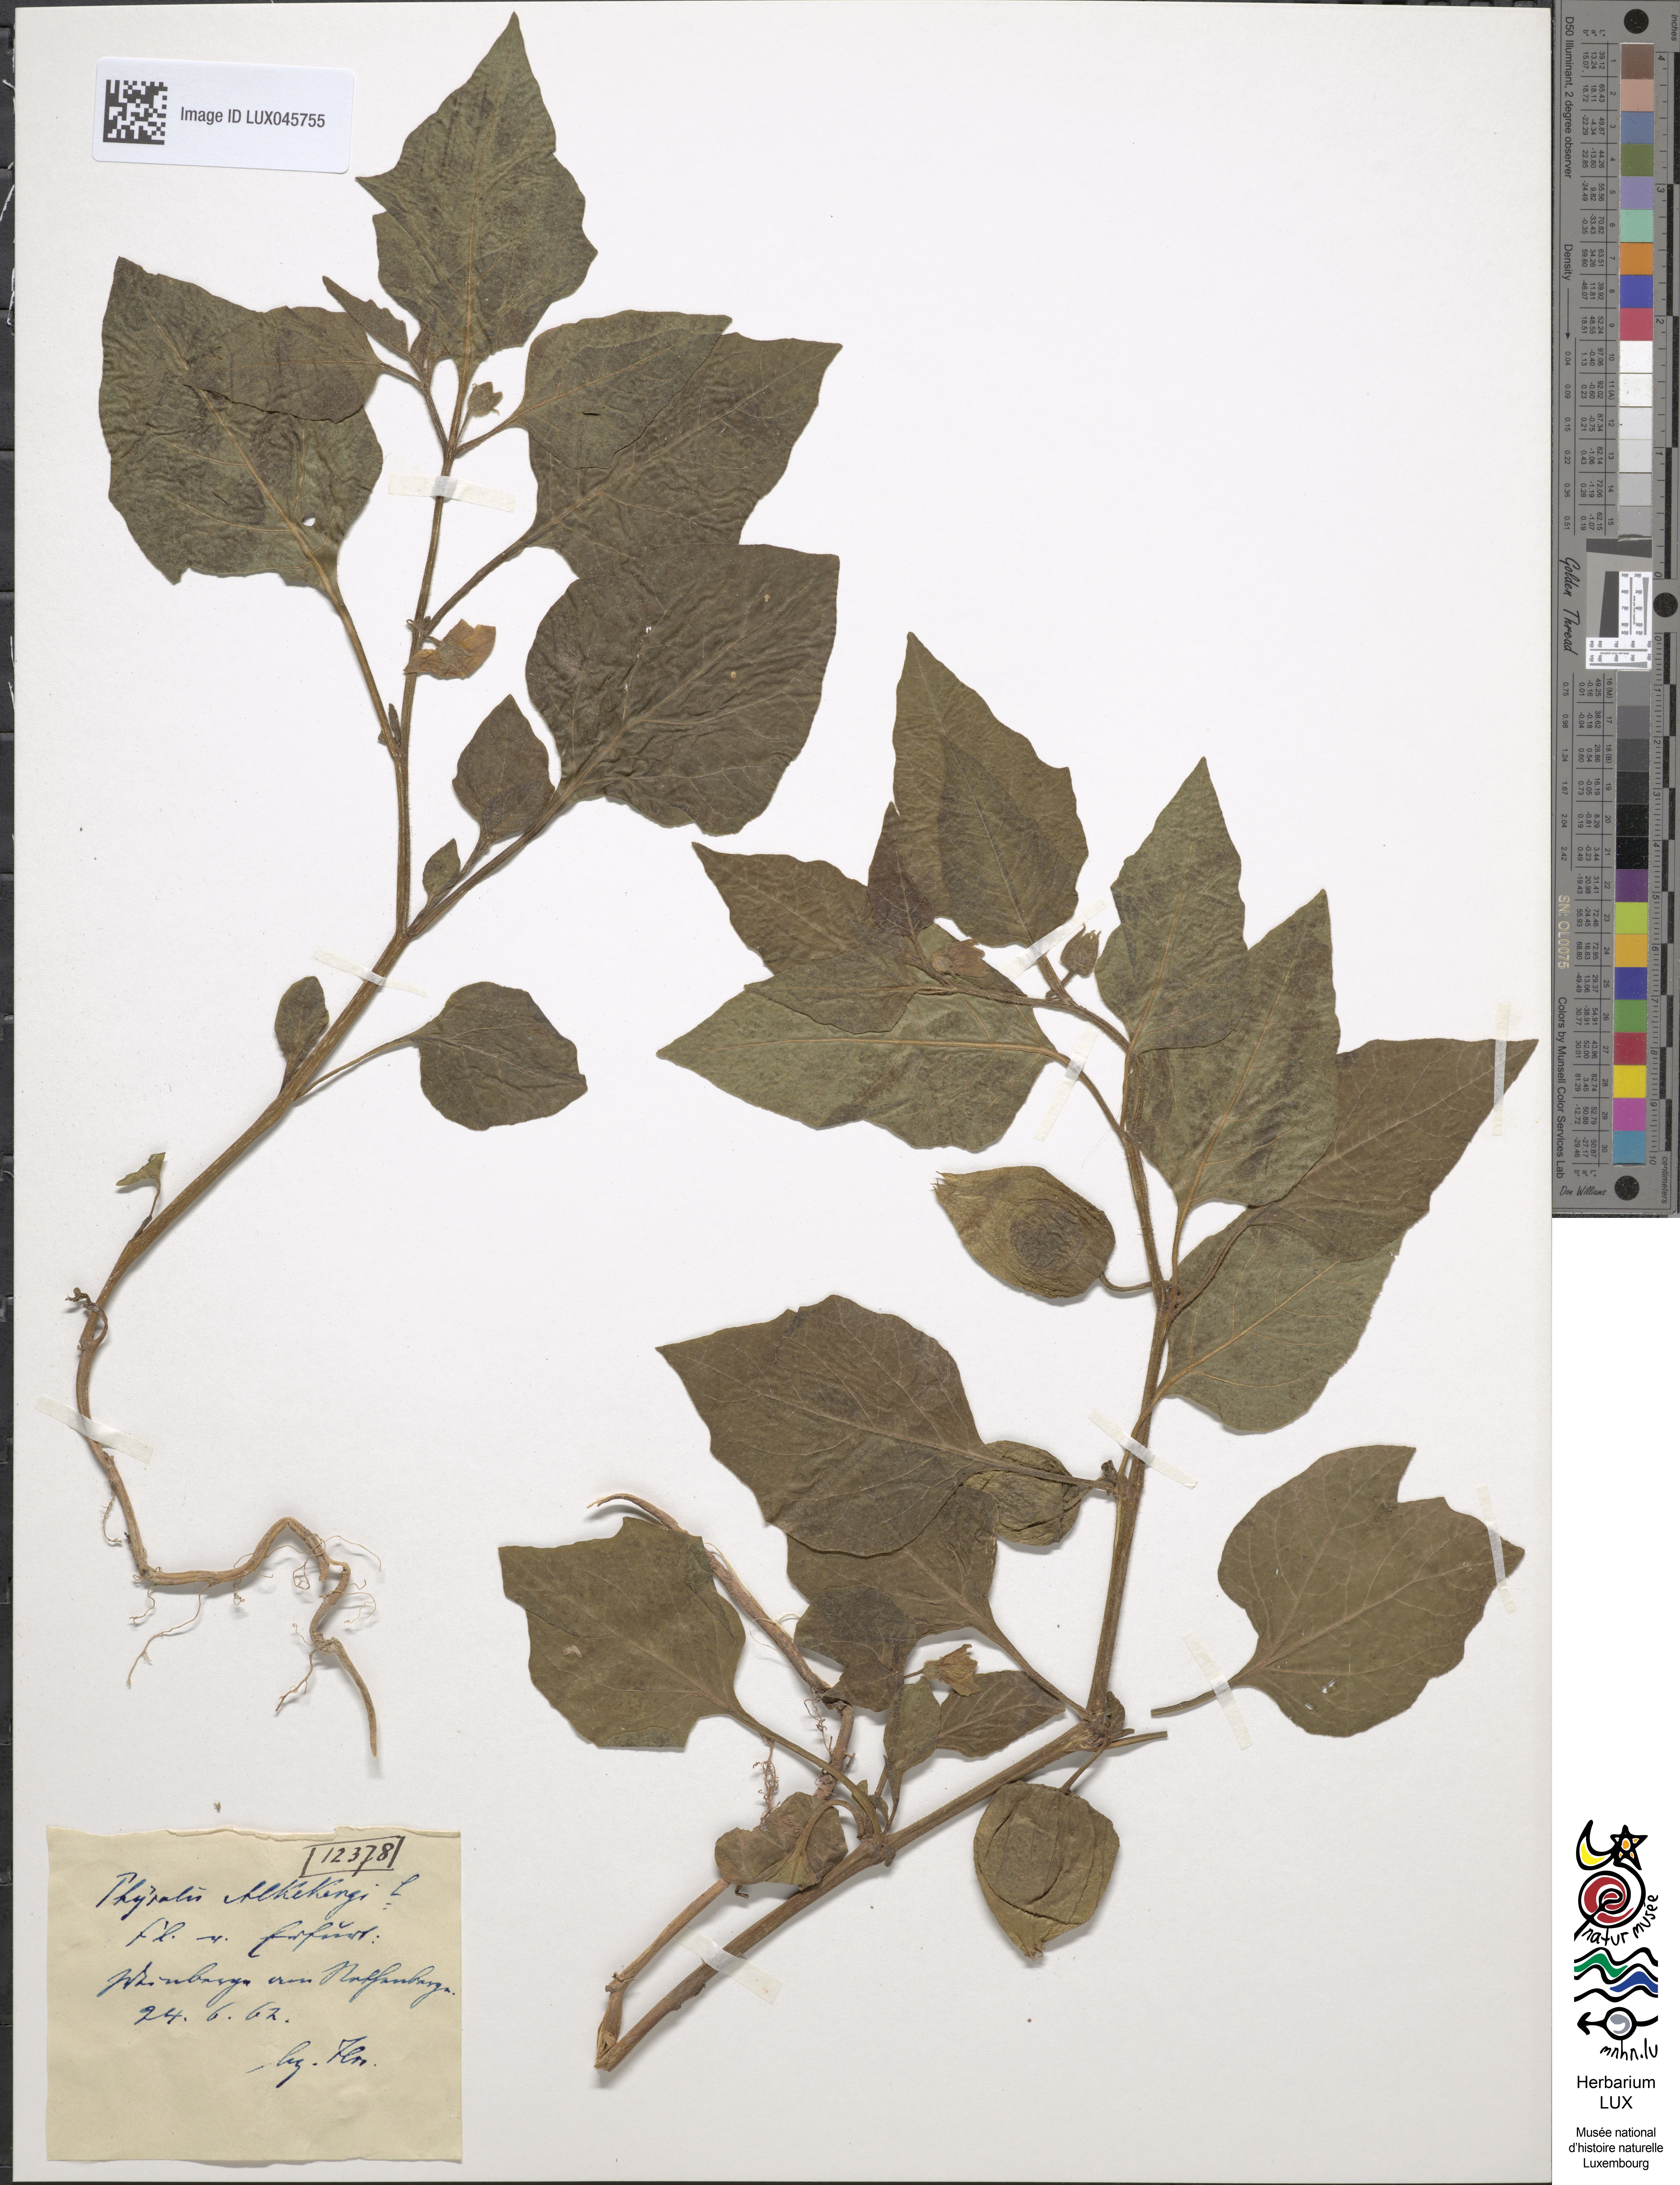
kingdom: Plantae
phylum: Tracheophyta
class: Magnoliopsida
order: Solanales
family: Solanaceae
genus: Alkekengi
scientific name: Alkekengi officinarum
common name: Japanese-lantern
